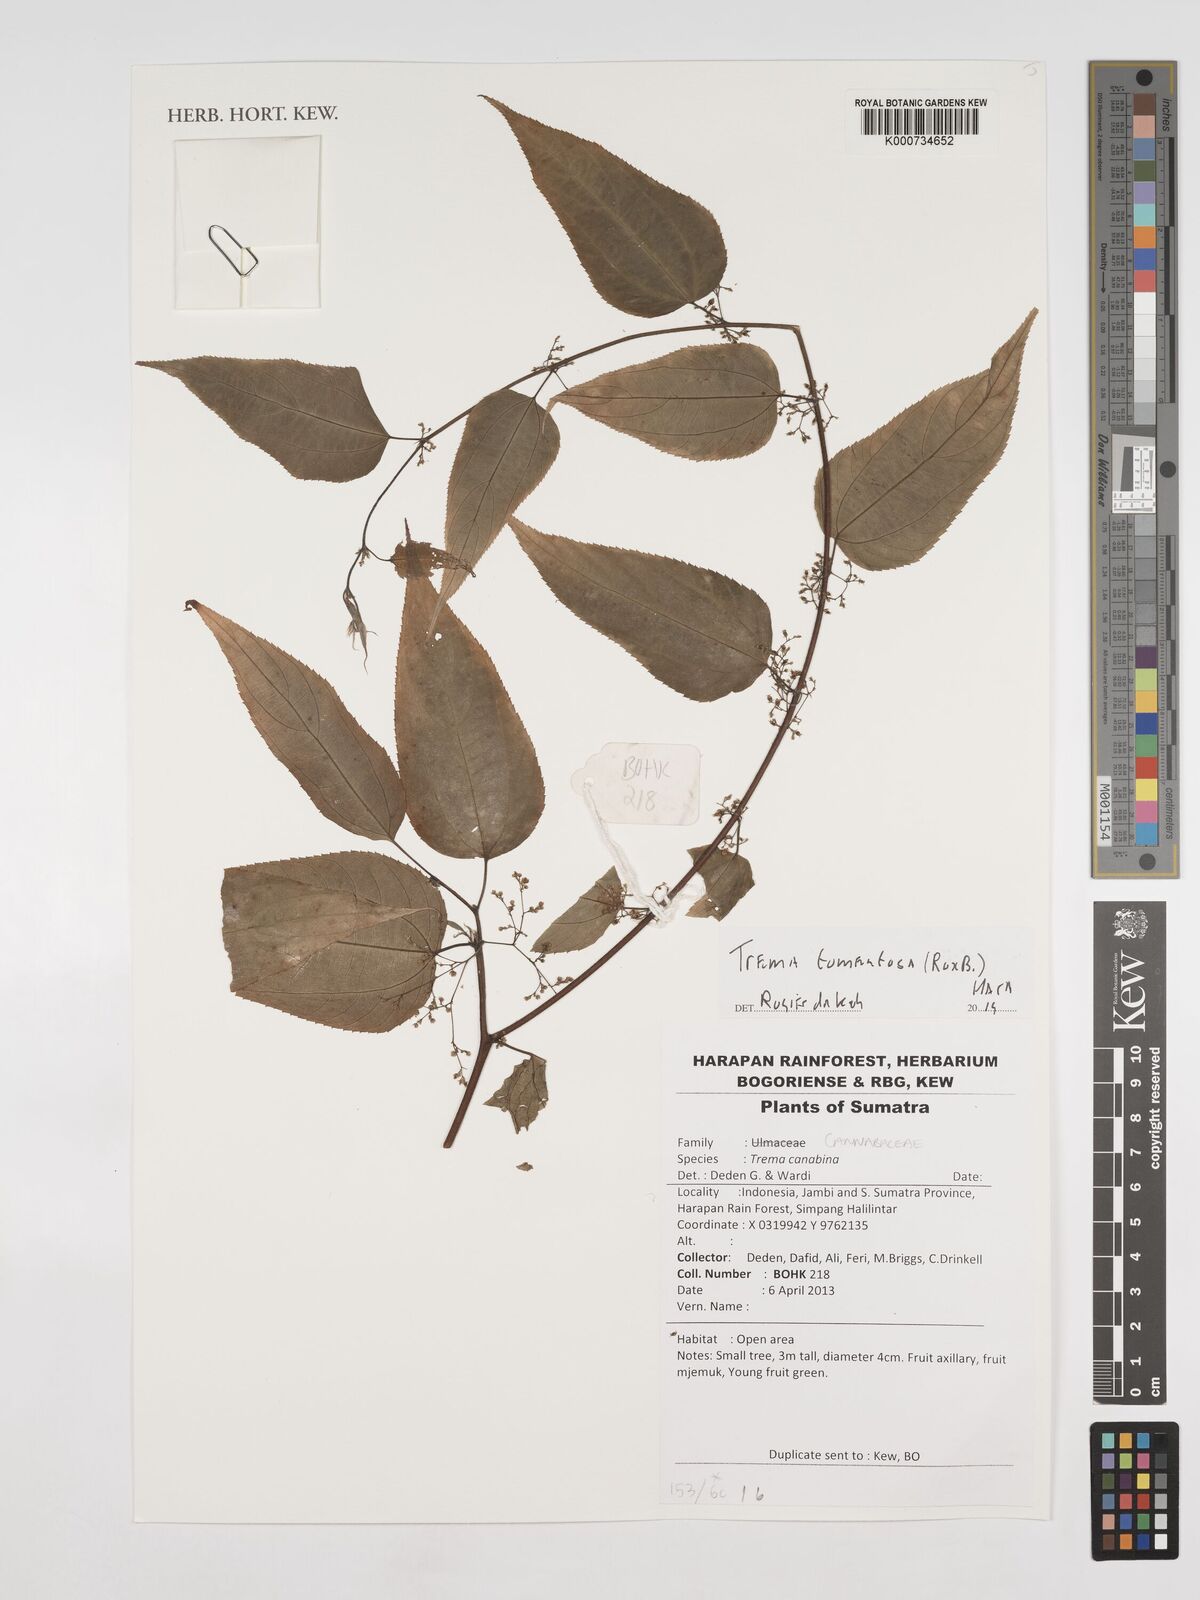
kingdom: Plantae
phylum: Tracheophyta
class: Magnoliopsida
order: Rosales
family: Cannabaceae
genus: Trema
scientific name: Trema tomentosum
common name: Peach-leaf-poisonbush
